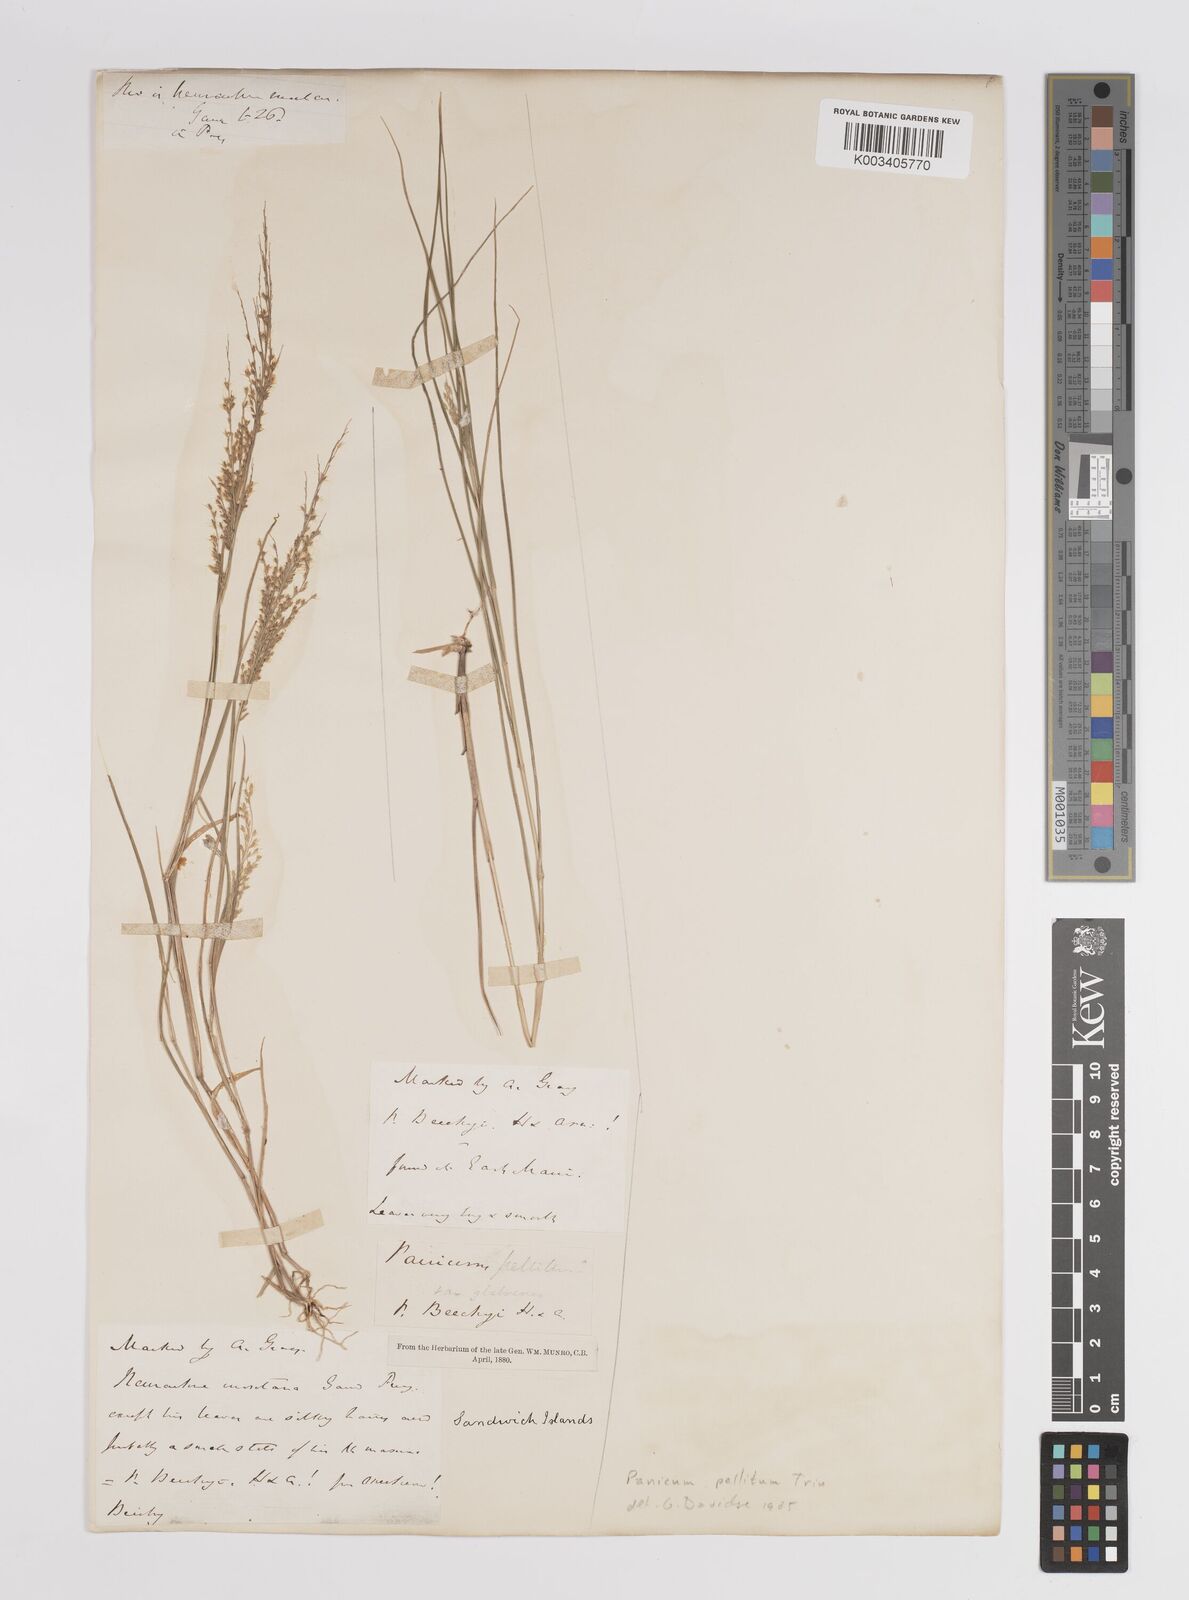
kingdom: Plantae
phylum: Tracheophyta
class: Liliopsida
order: Poales
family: Poaceae
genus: Panicum
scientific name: Panicum pellitum
